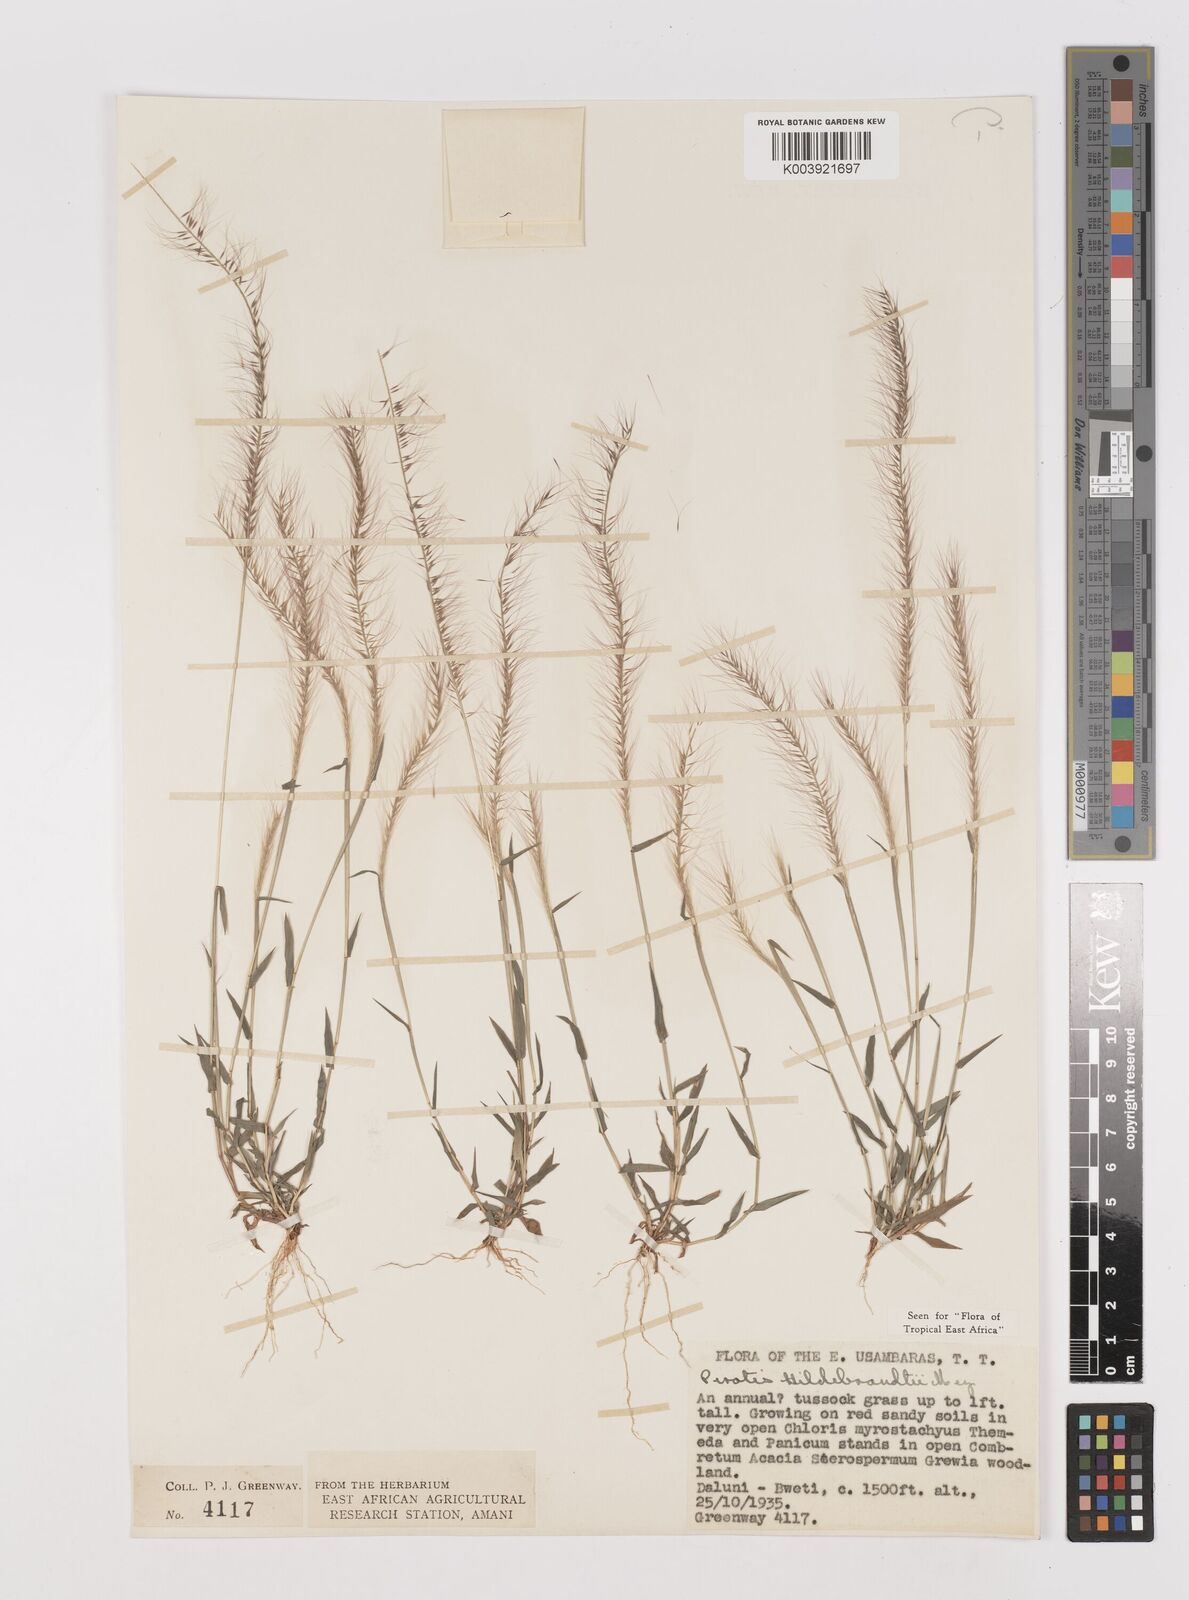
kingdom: Plantae
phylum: Tracheophyta
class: Liliopsida
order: Poales
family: Poaceae
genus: Perotis
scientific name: Perotis hildebrandtii
